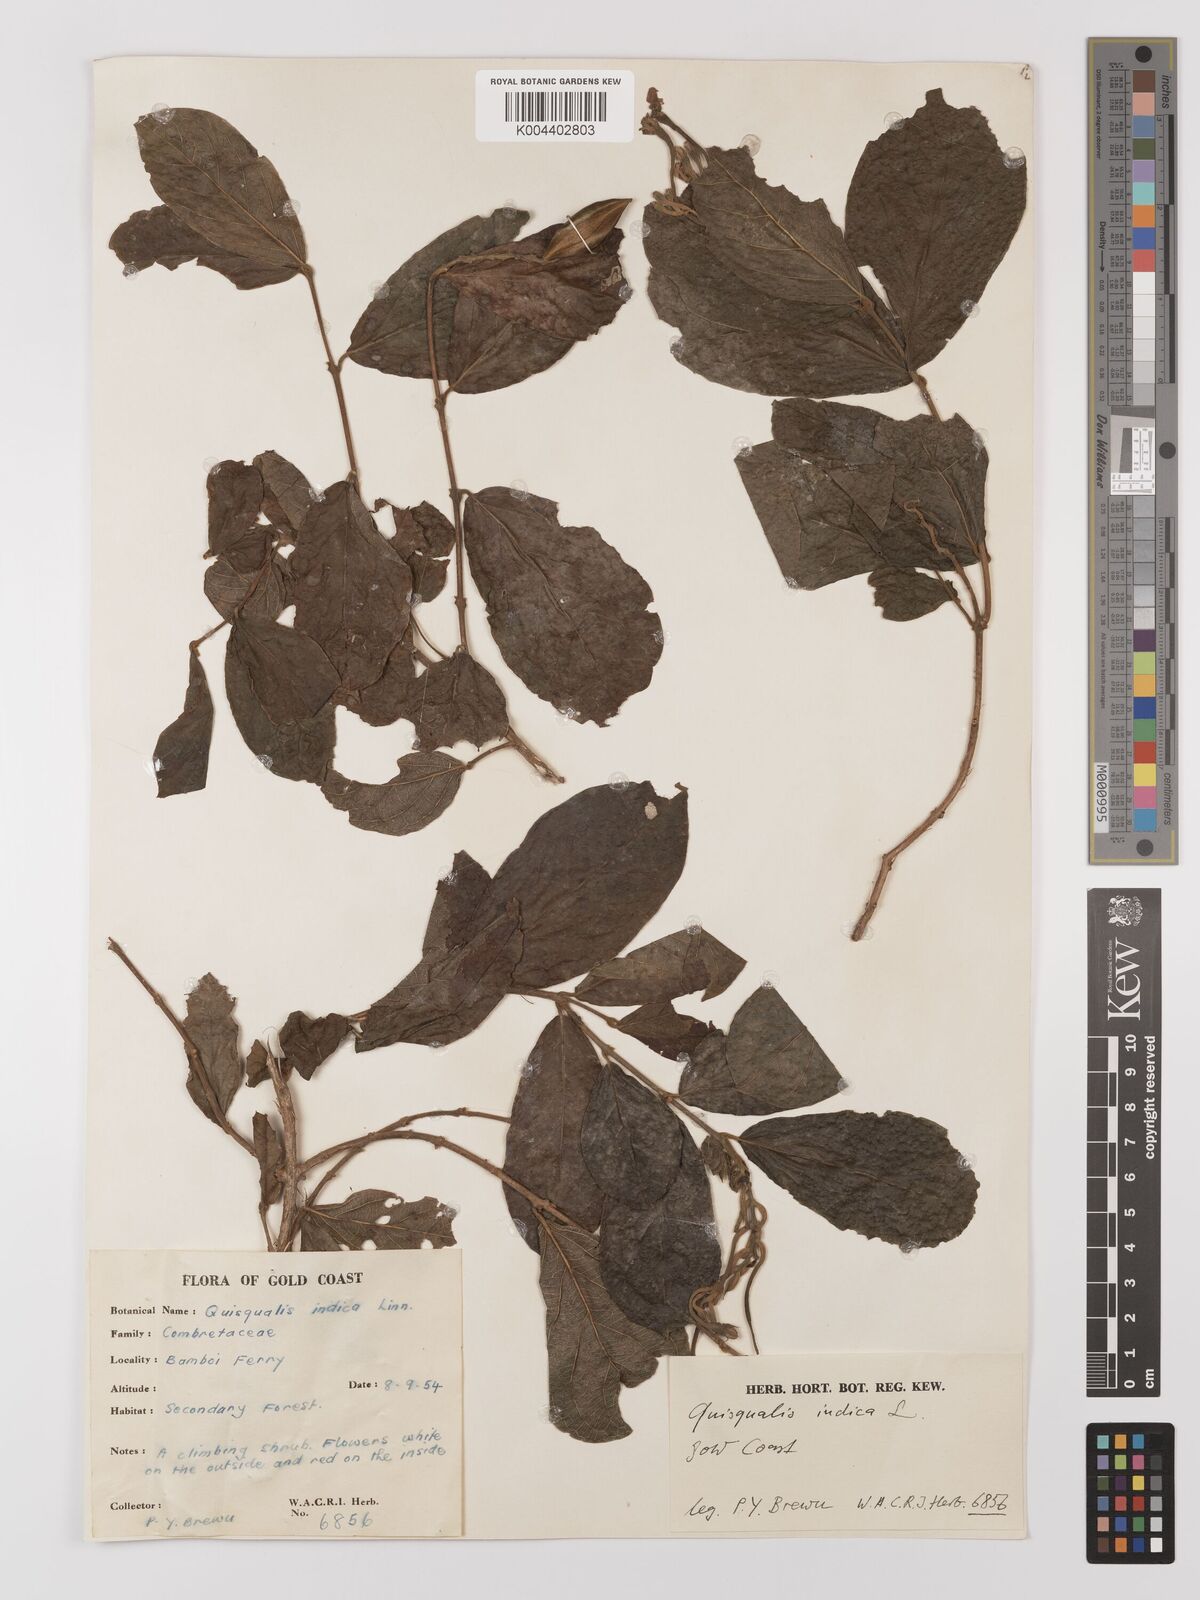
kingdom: Plantae
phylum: Tracheophyta
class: Magnoliopsida
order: Myrtales
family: Combretaceae
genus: Combretum
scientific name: Combretum
